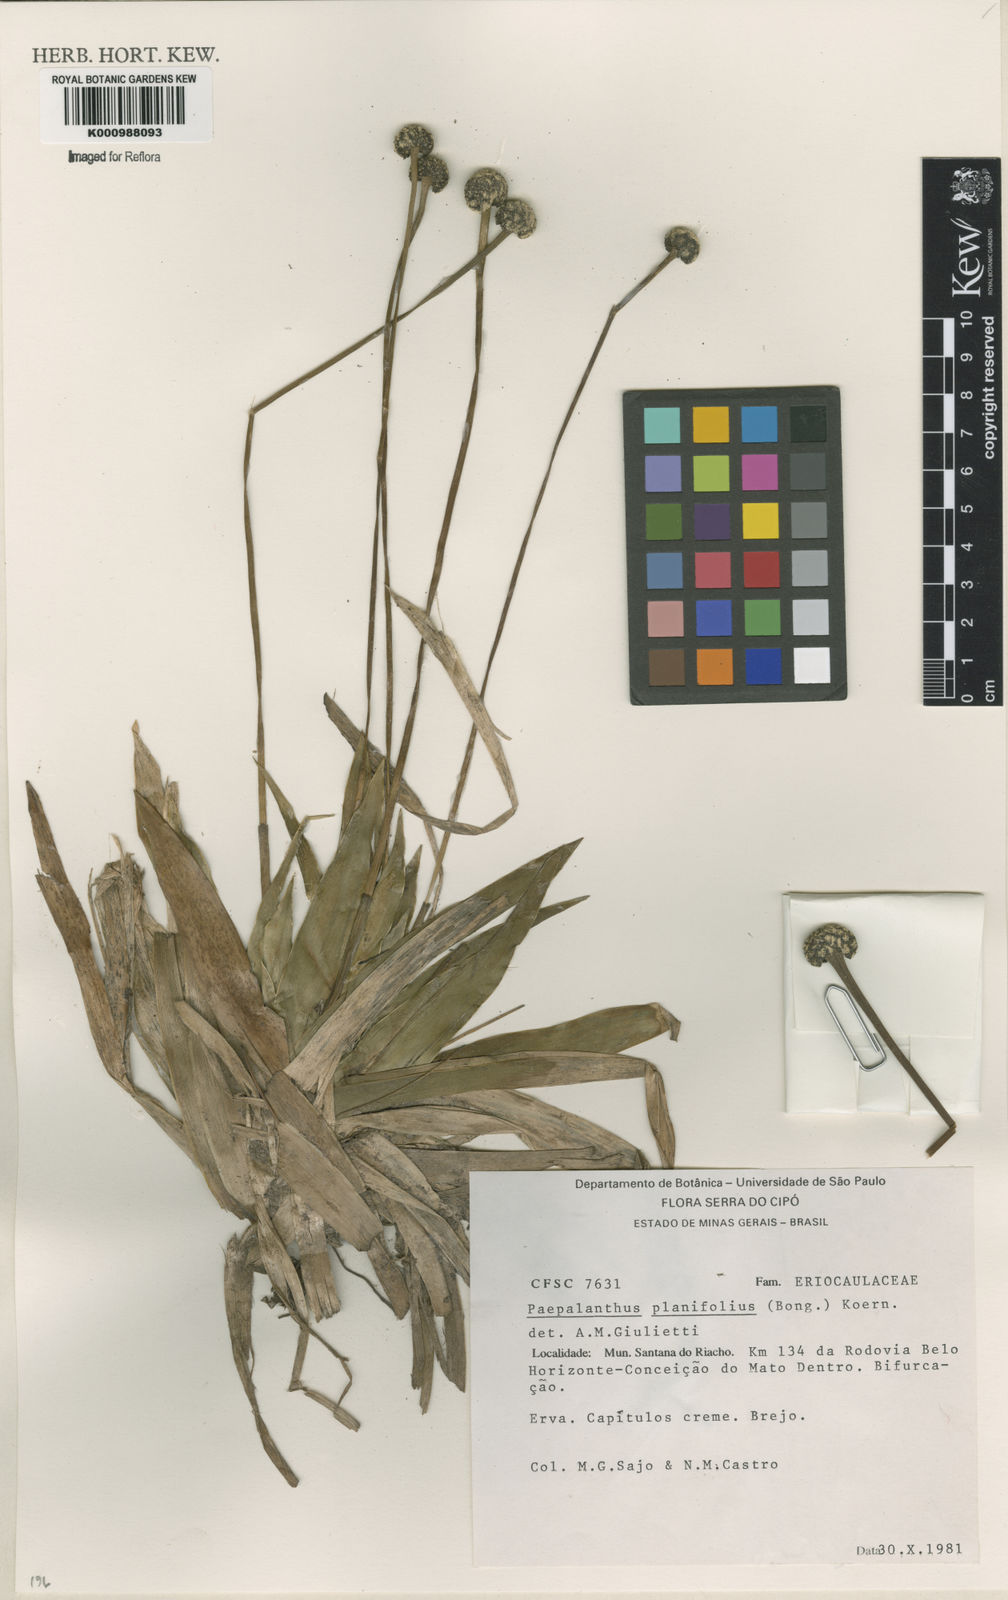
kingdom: Plantae
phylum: Tracheophyta
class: Liliopsida
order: Poales
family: Eriocaulaceae
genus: Paepalanthus
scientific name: Paepalanthus
